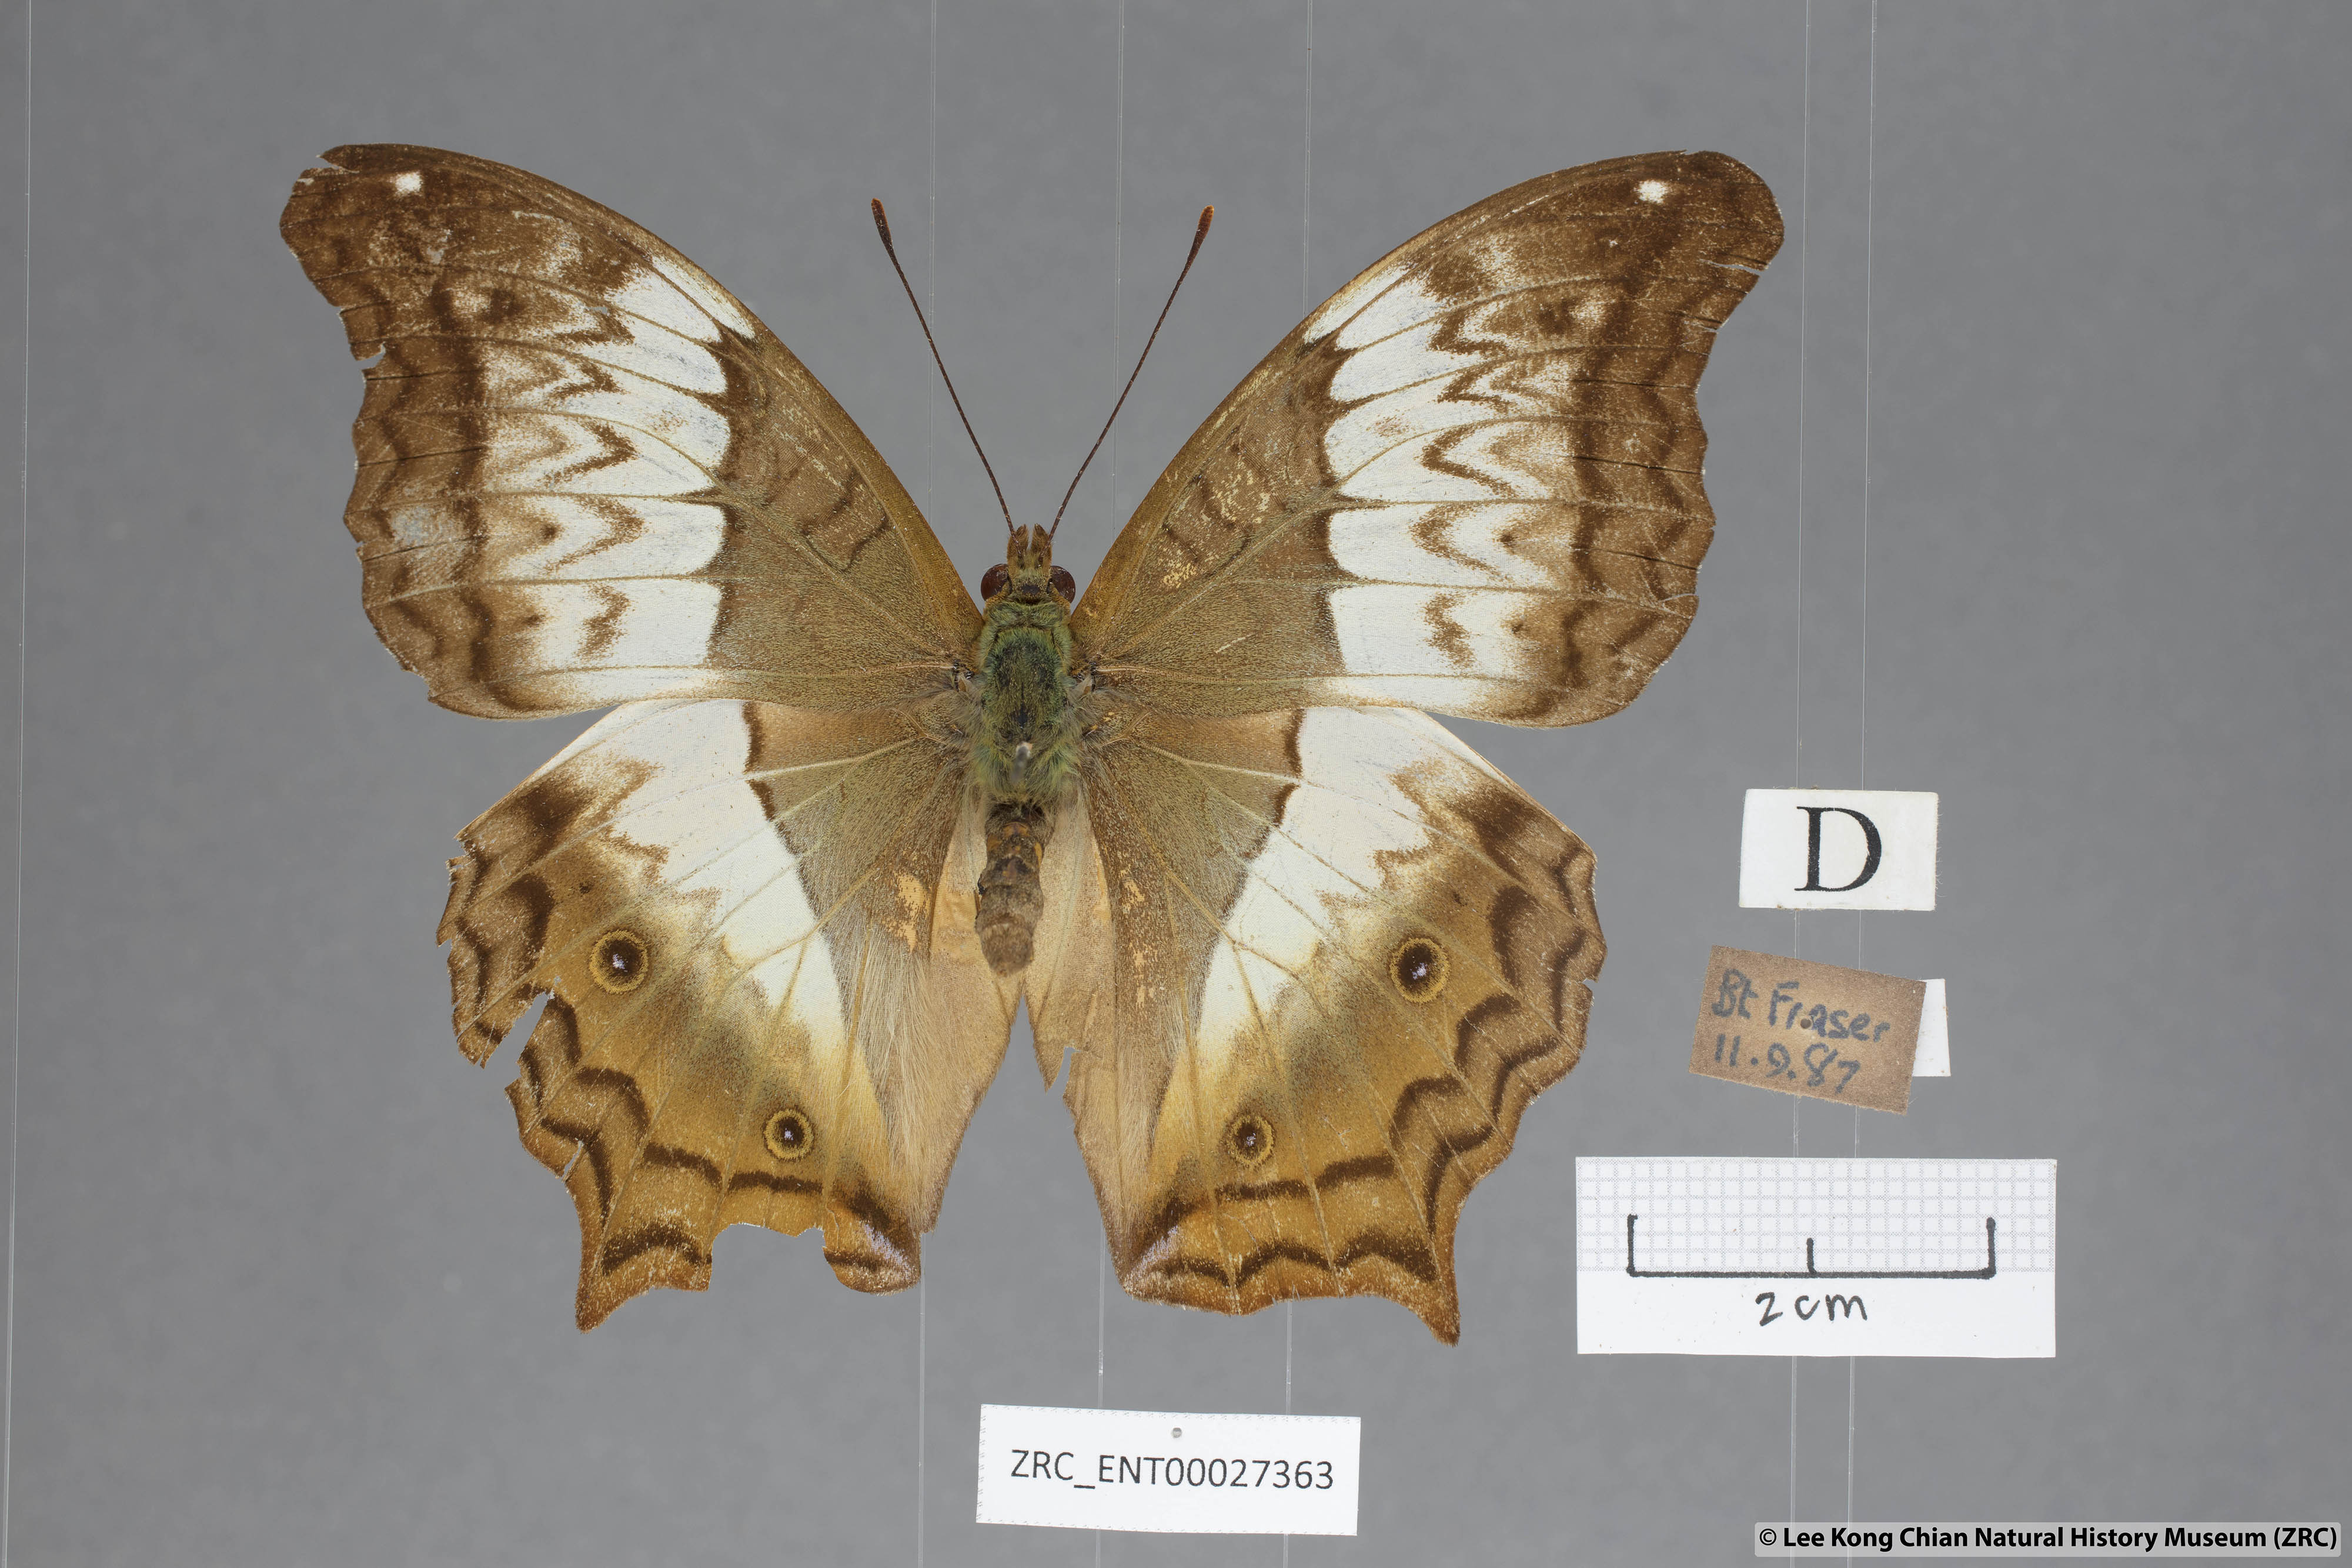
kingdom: Animalia
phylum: Arthropoda
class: Insecta
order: Lepidoptera
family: Nymphalidae
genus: Vindula
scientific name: Vindula erota
